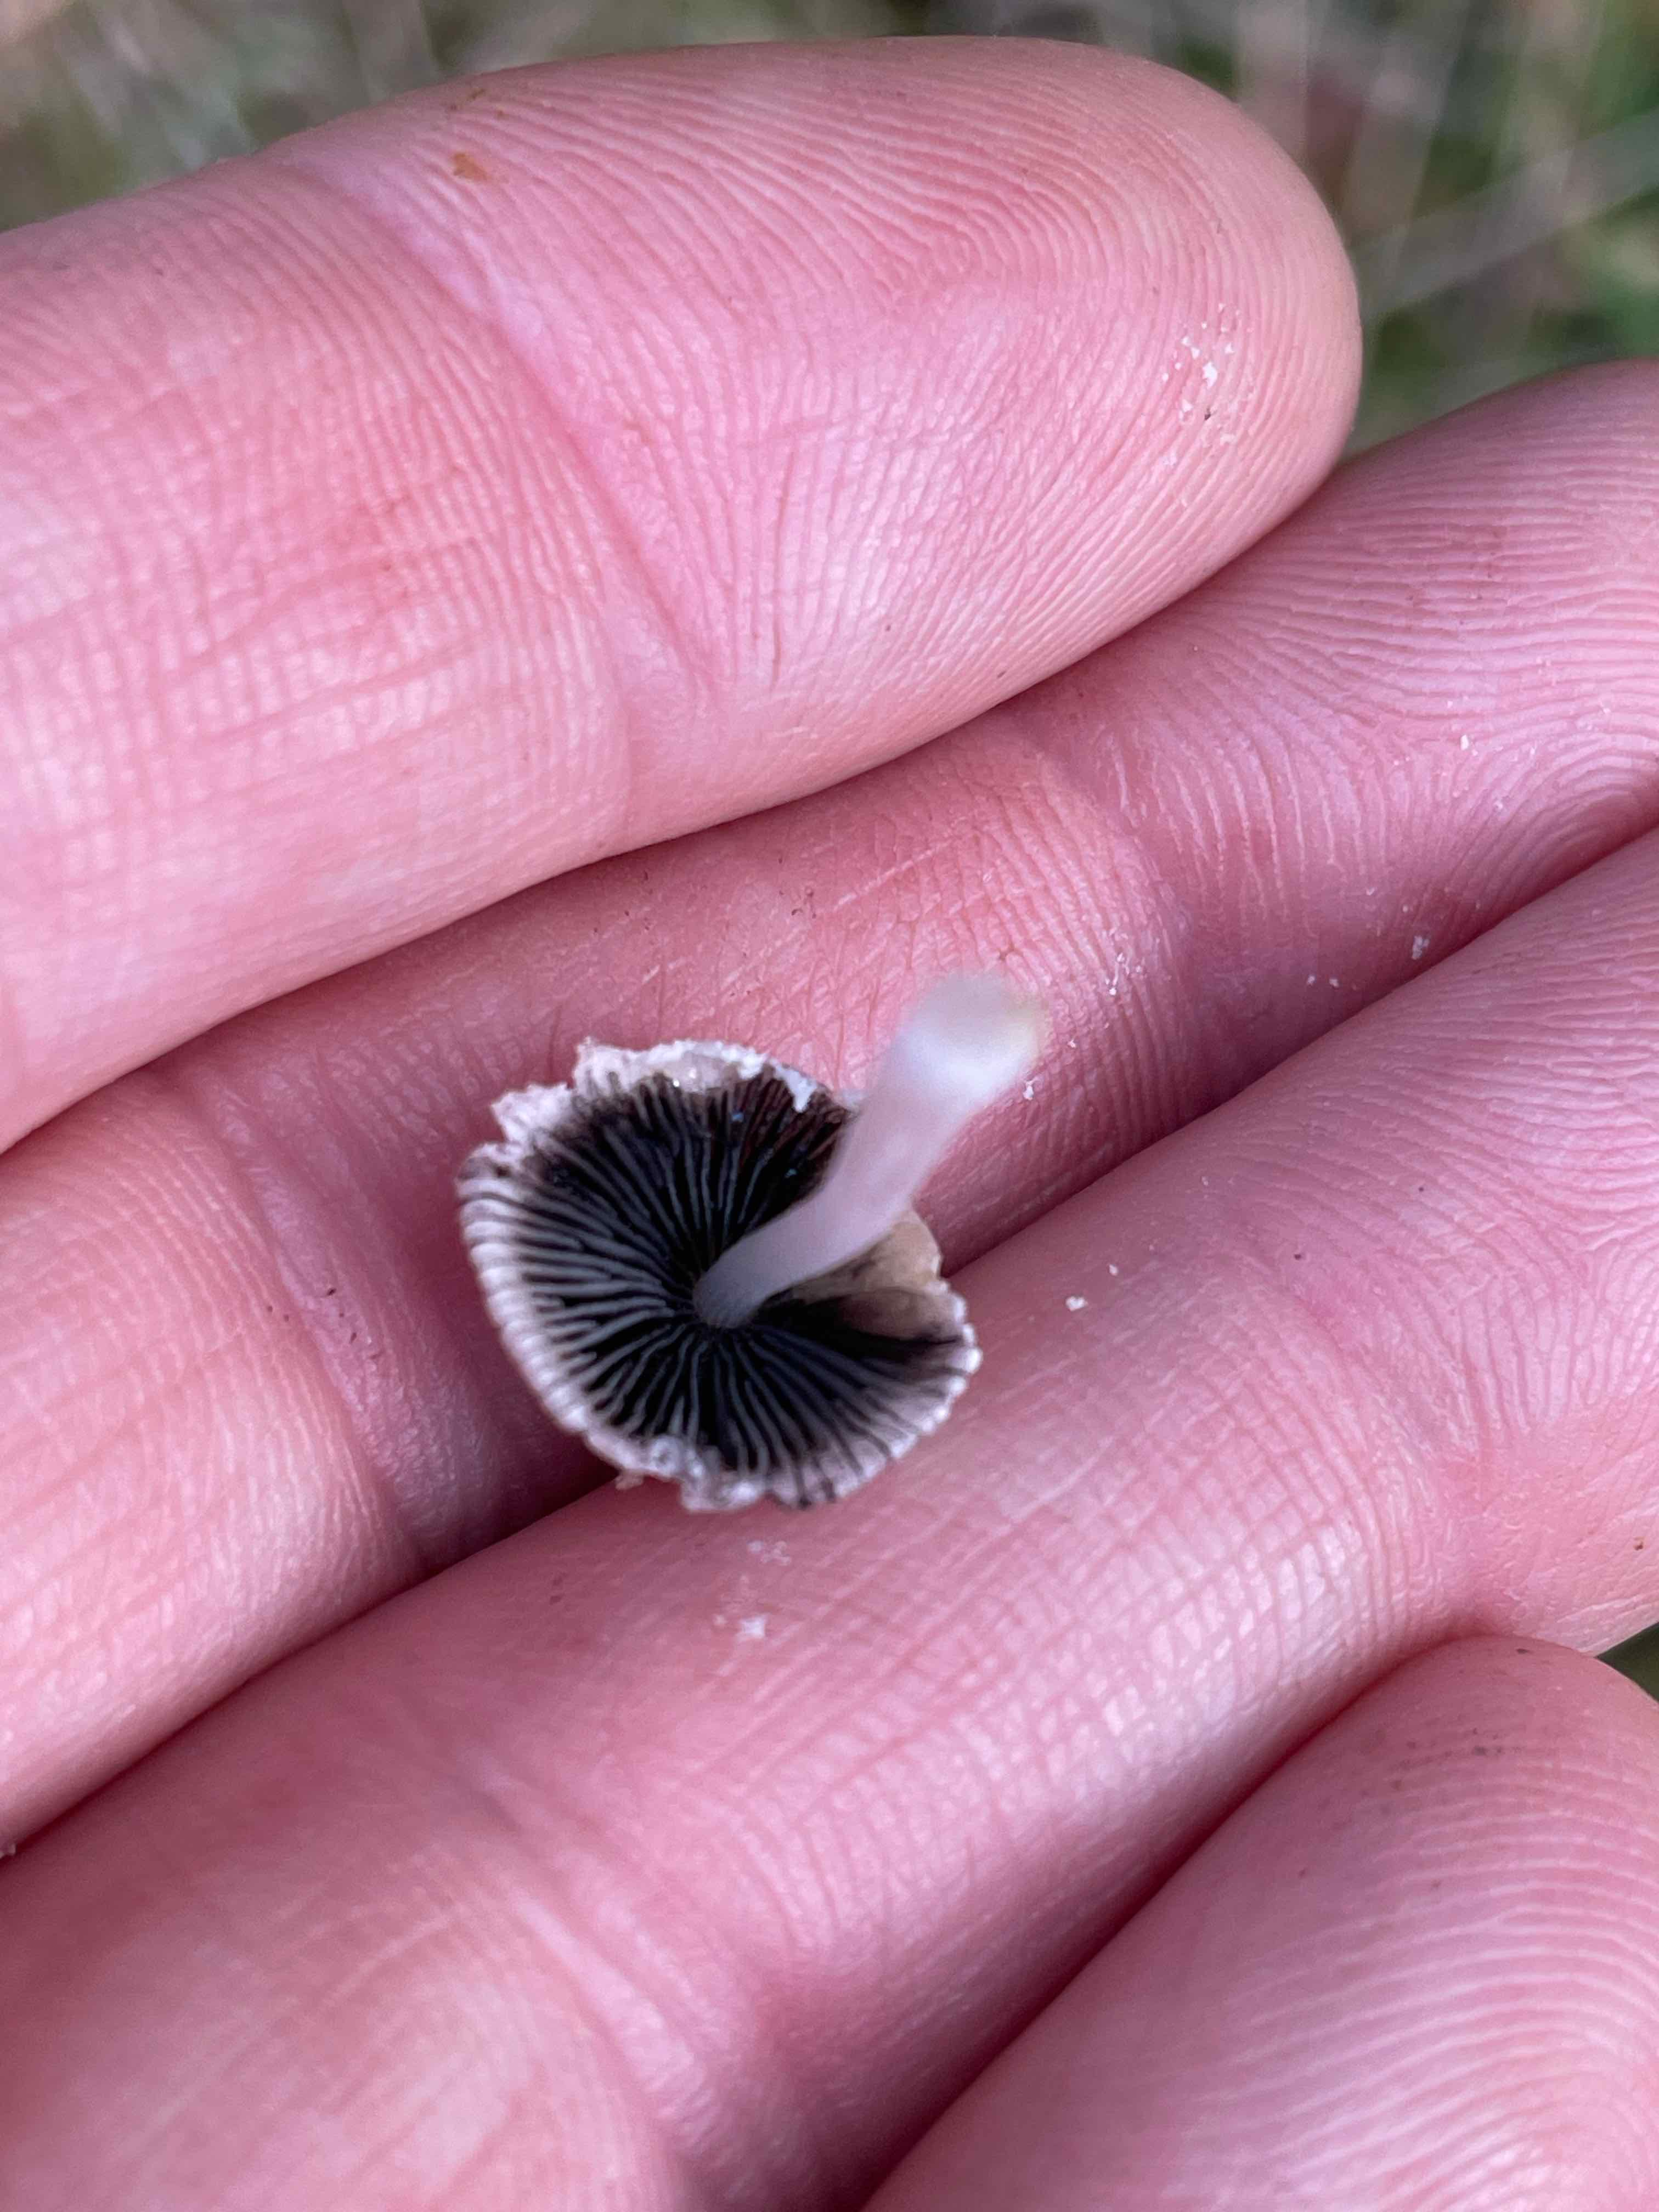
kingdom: Fungi
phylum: Basidiomycota
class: Agaricomycetes
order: Agaricales
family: Psathyrellaceae
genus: Coprinopsis
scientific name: Coprinopsis nivea
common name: snehvid blækhat
